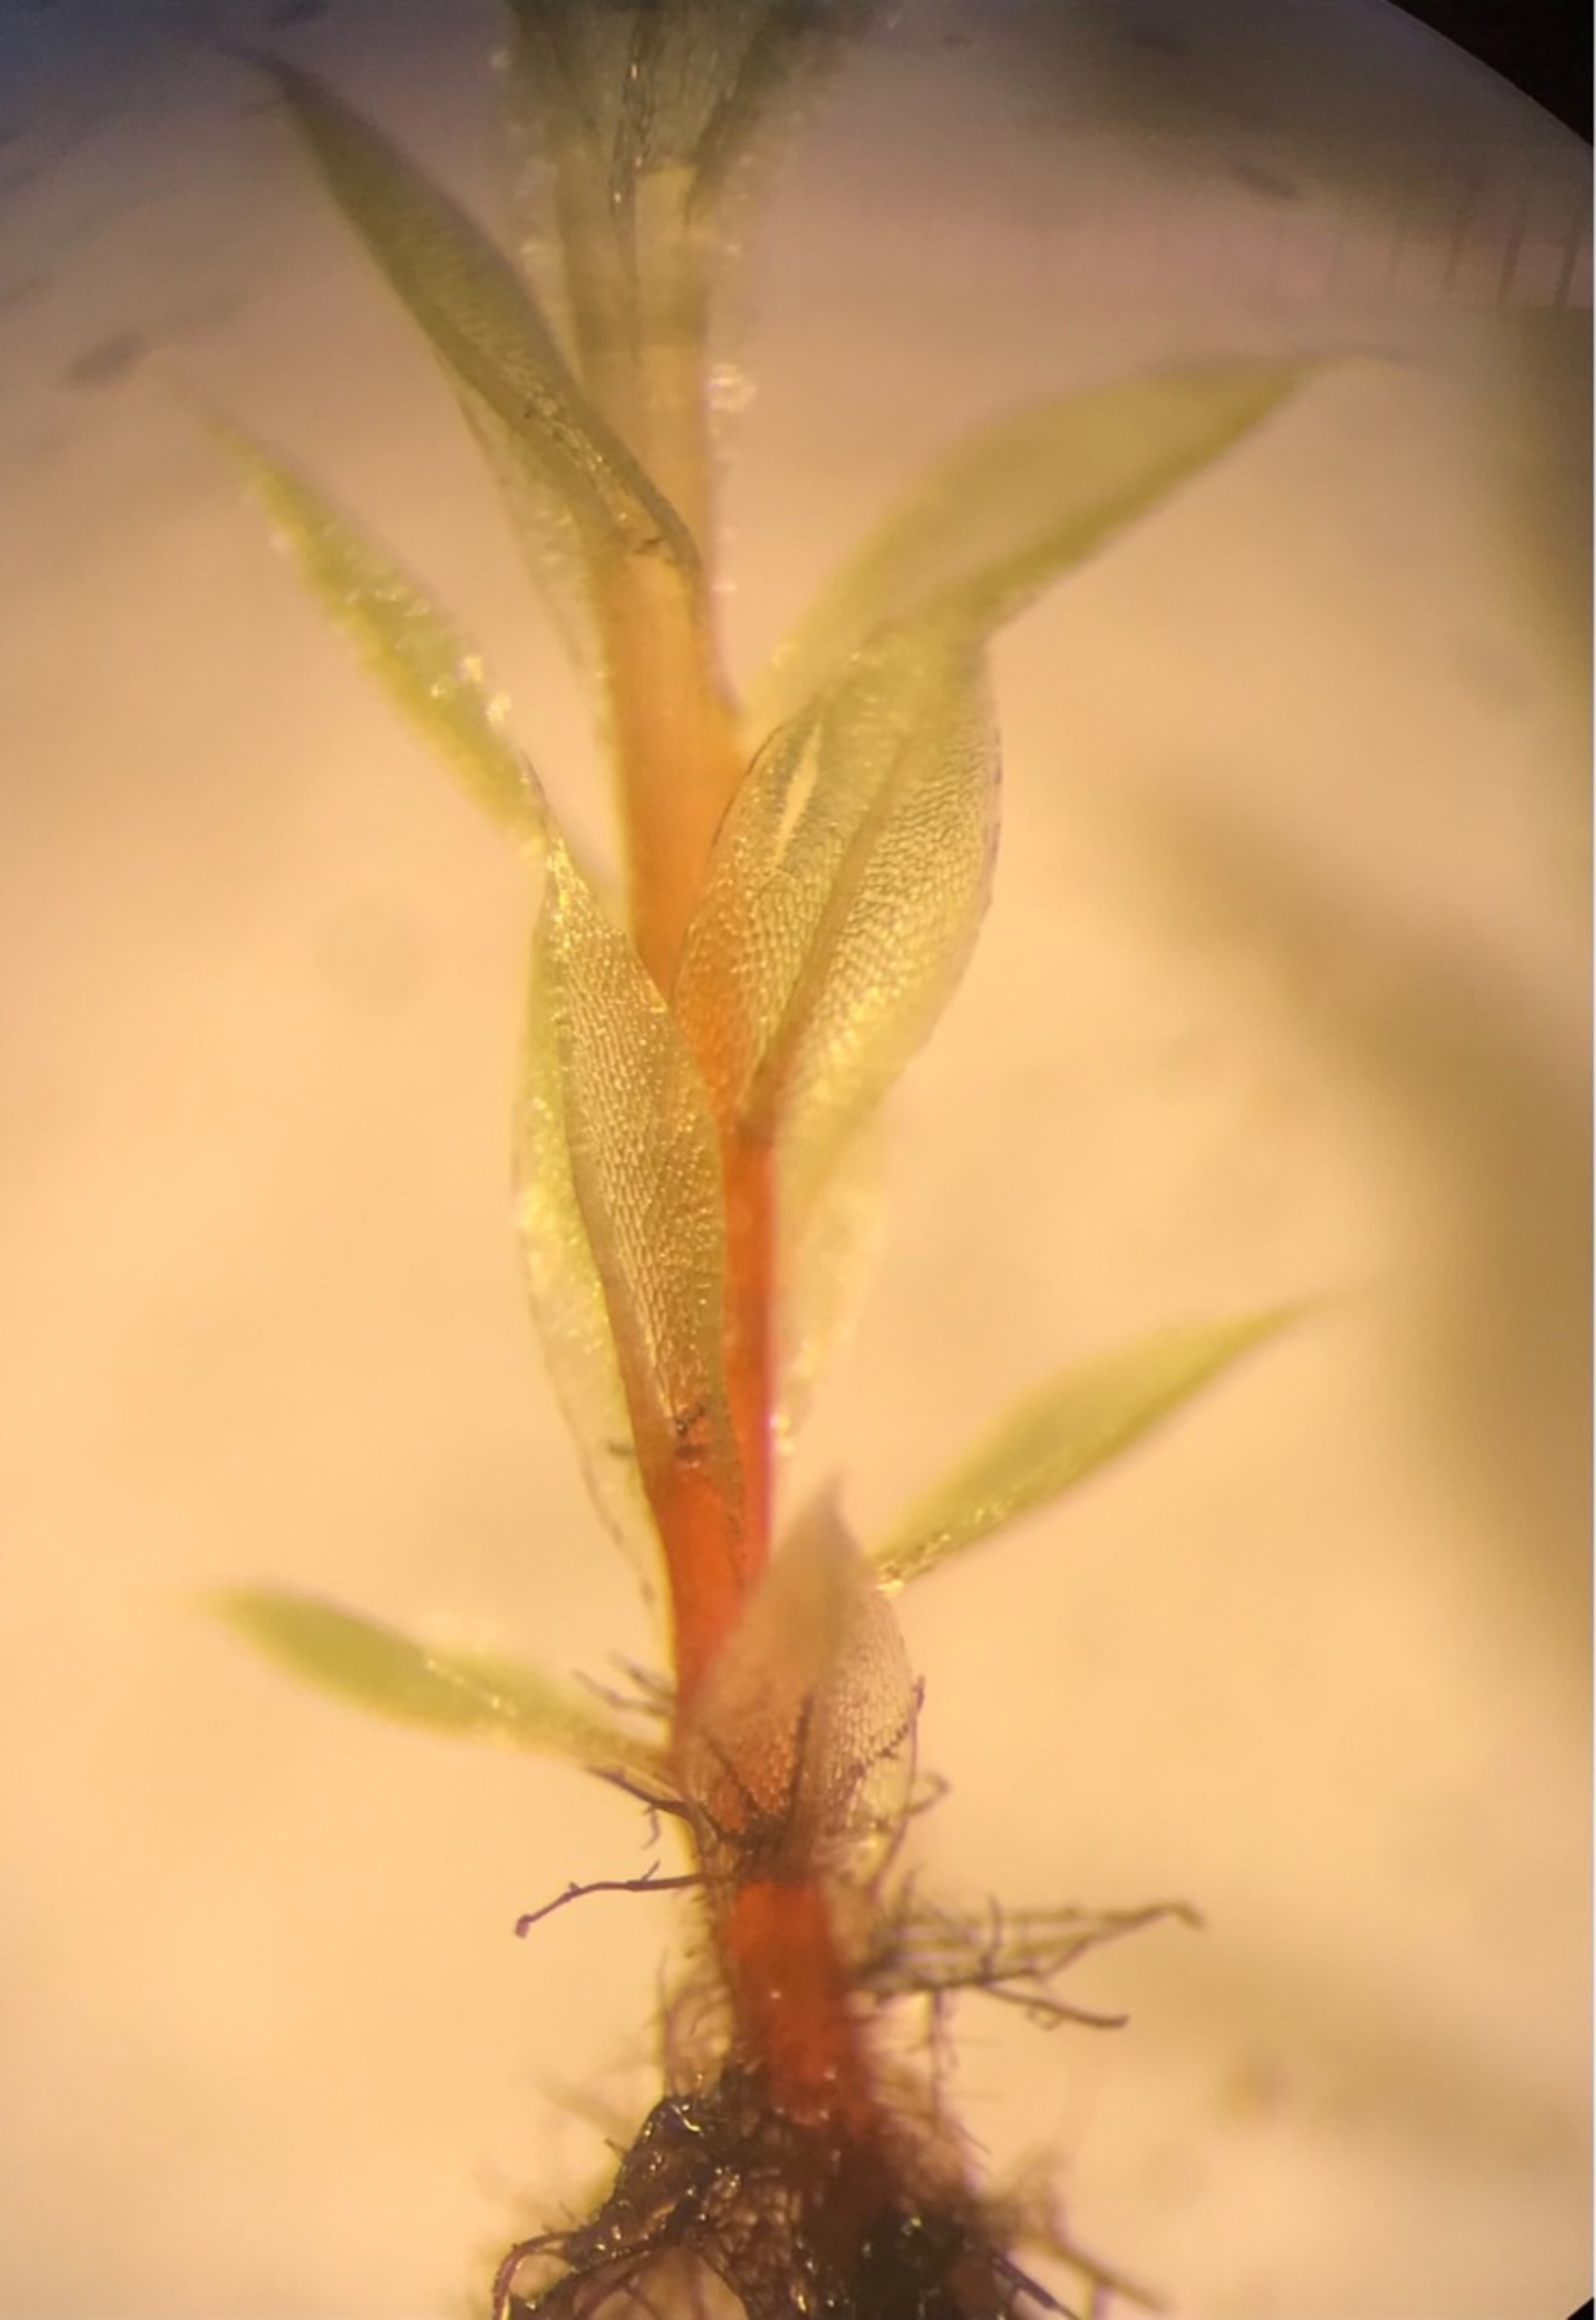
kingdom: Plantae
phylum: Bryophyta
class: Bryopsida
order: Bryales
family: Bryaceae
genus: Ptychostomum
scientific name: Ptychostomum pseudotriquetrum
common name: Nedløbende bryum
